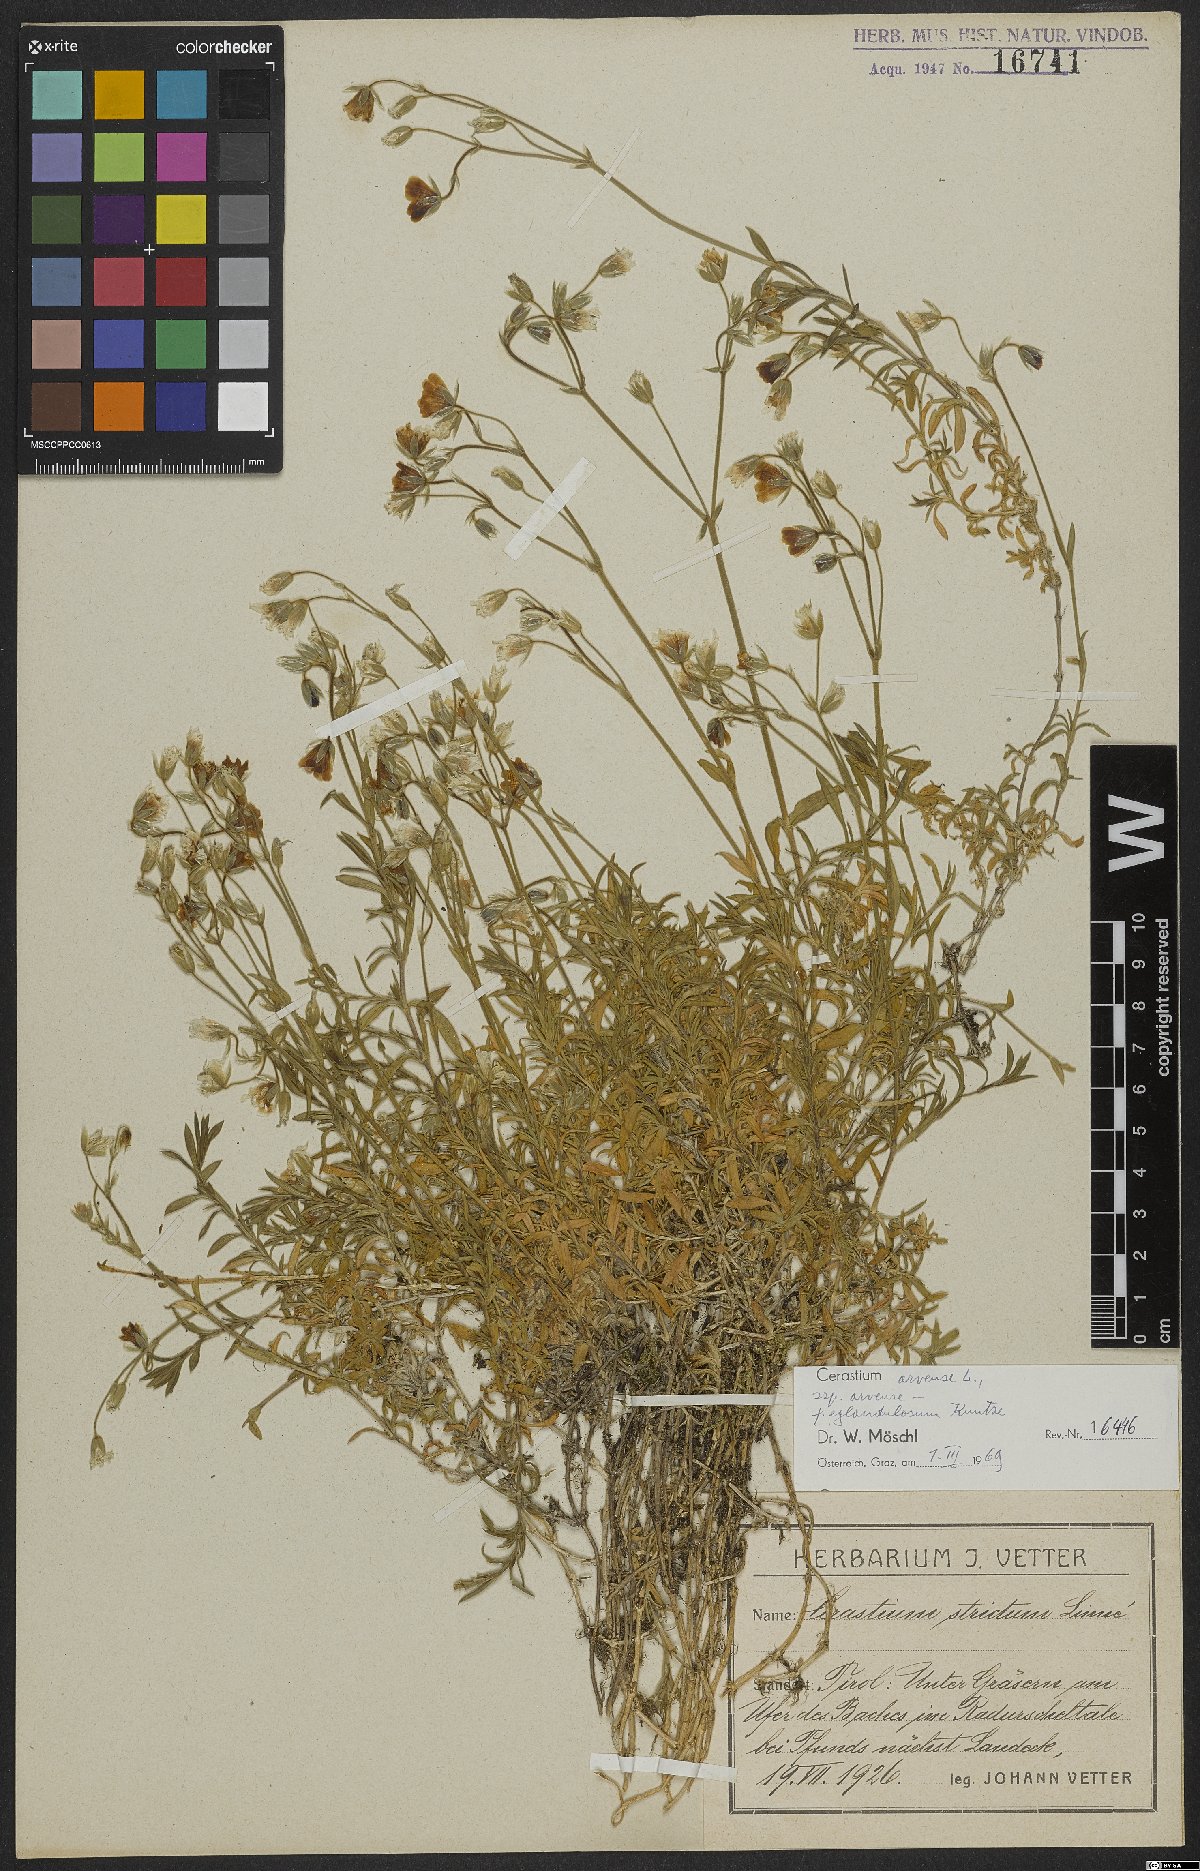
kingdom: Plantae
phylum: Tracheophyta
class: Magnoliopsida
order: Caryophyllales
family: Caryophyllaceae
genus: Cerastium
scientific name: Cerastium arvense
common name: Field mouse-ear
